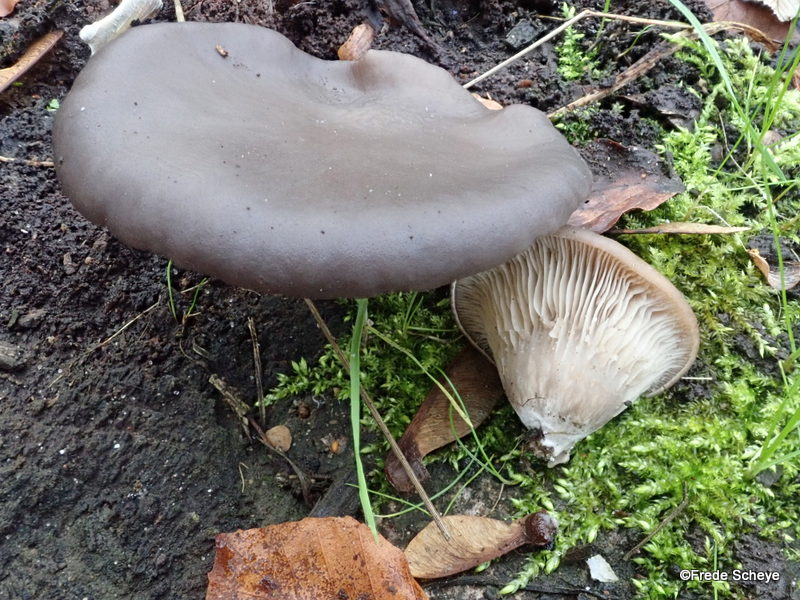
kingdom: Fungi
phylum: Basidiomycota
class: Agaricomycetes
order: Agaricales
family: Pleurotaceae
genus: Pleurotus
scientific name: Pleurotus ostreatus
